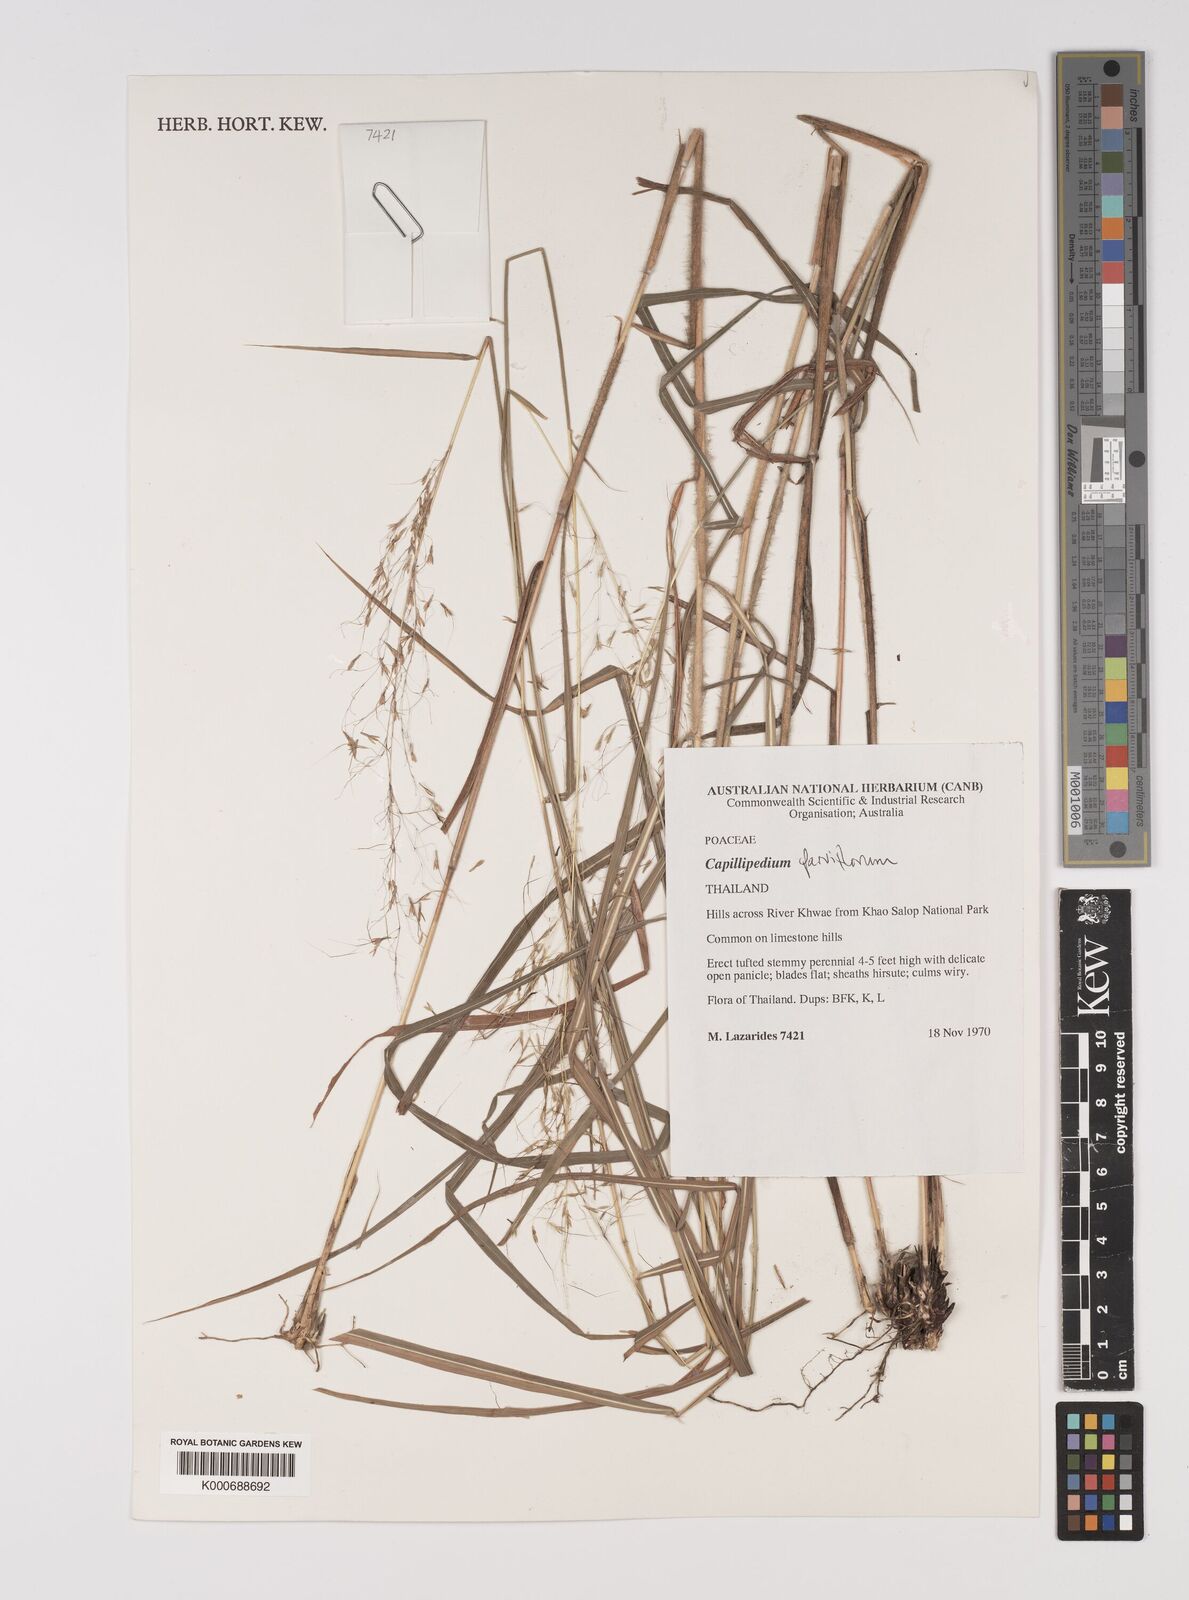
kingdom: Plantae
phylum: Tracheophyta
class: Liliopsida
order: Poales
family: Poaceae
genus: Capillipedium
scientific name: Capillipedium parviflorum
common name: Golden-beard
